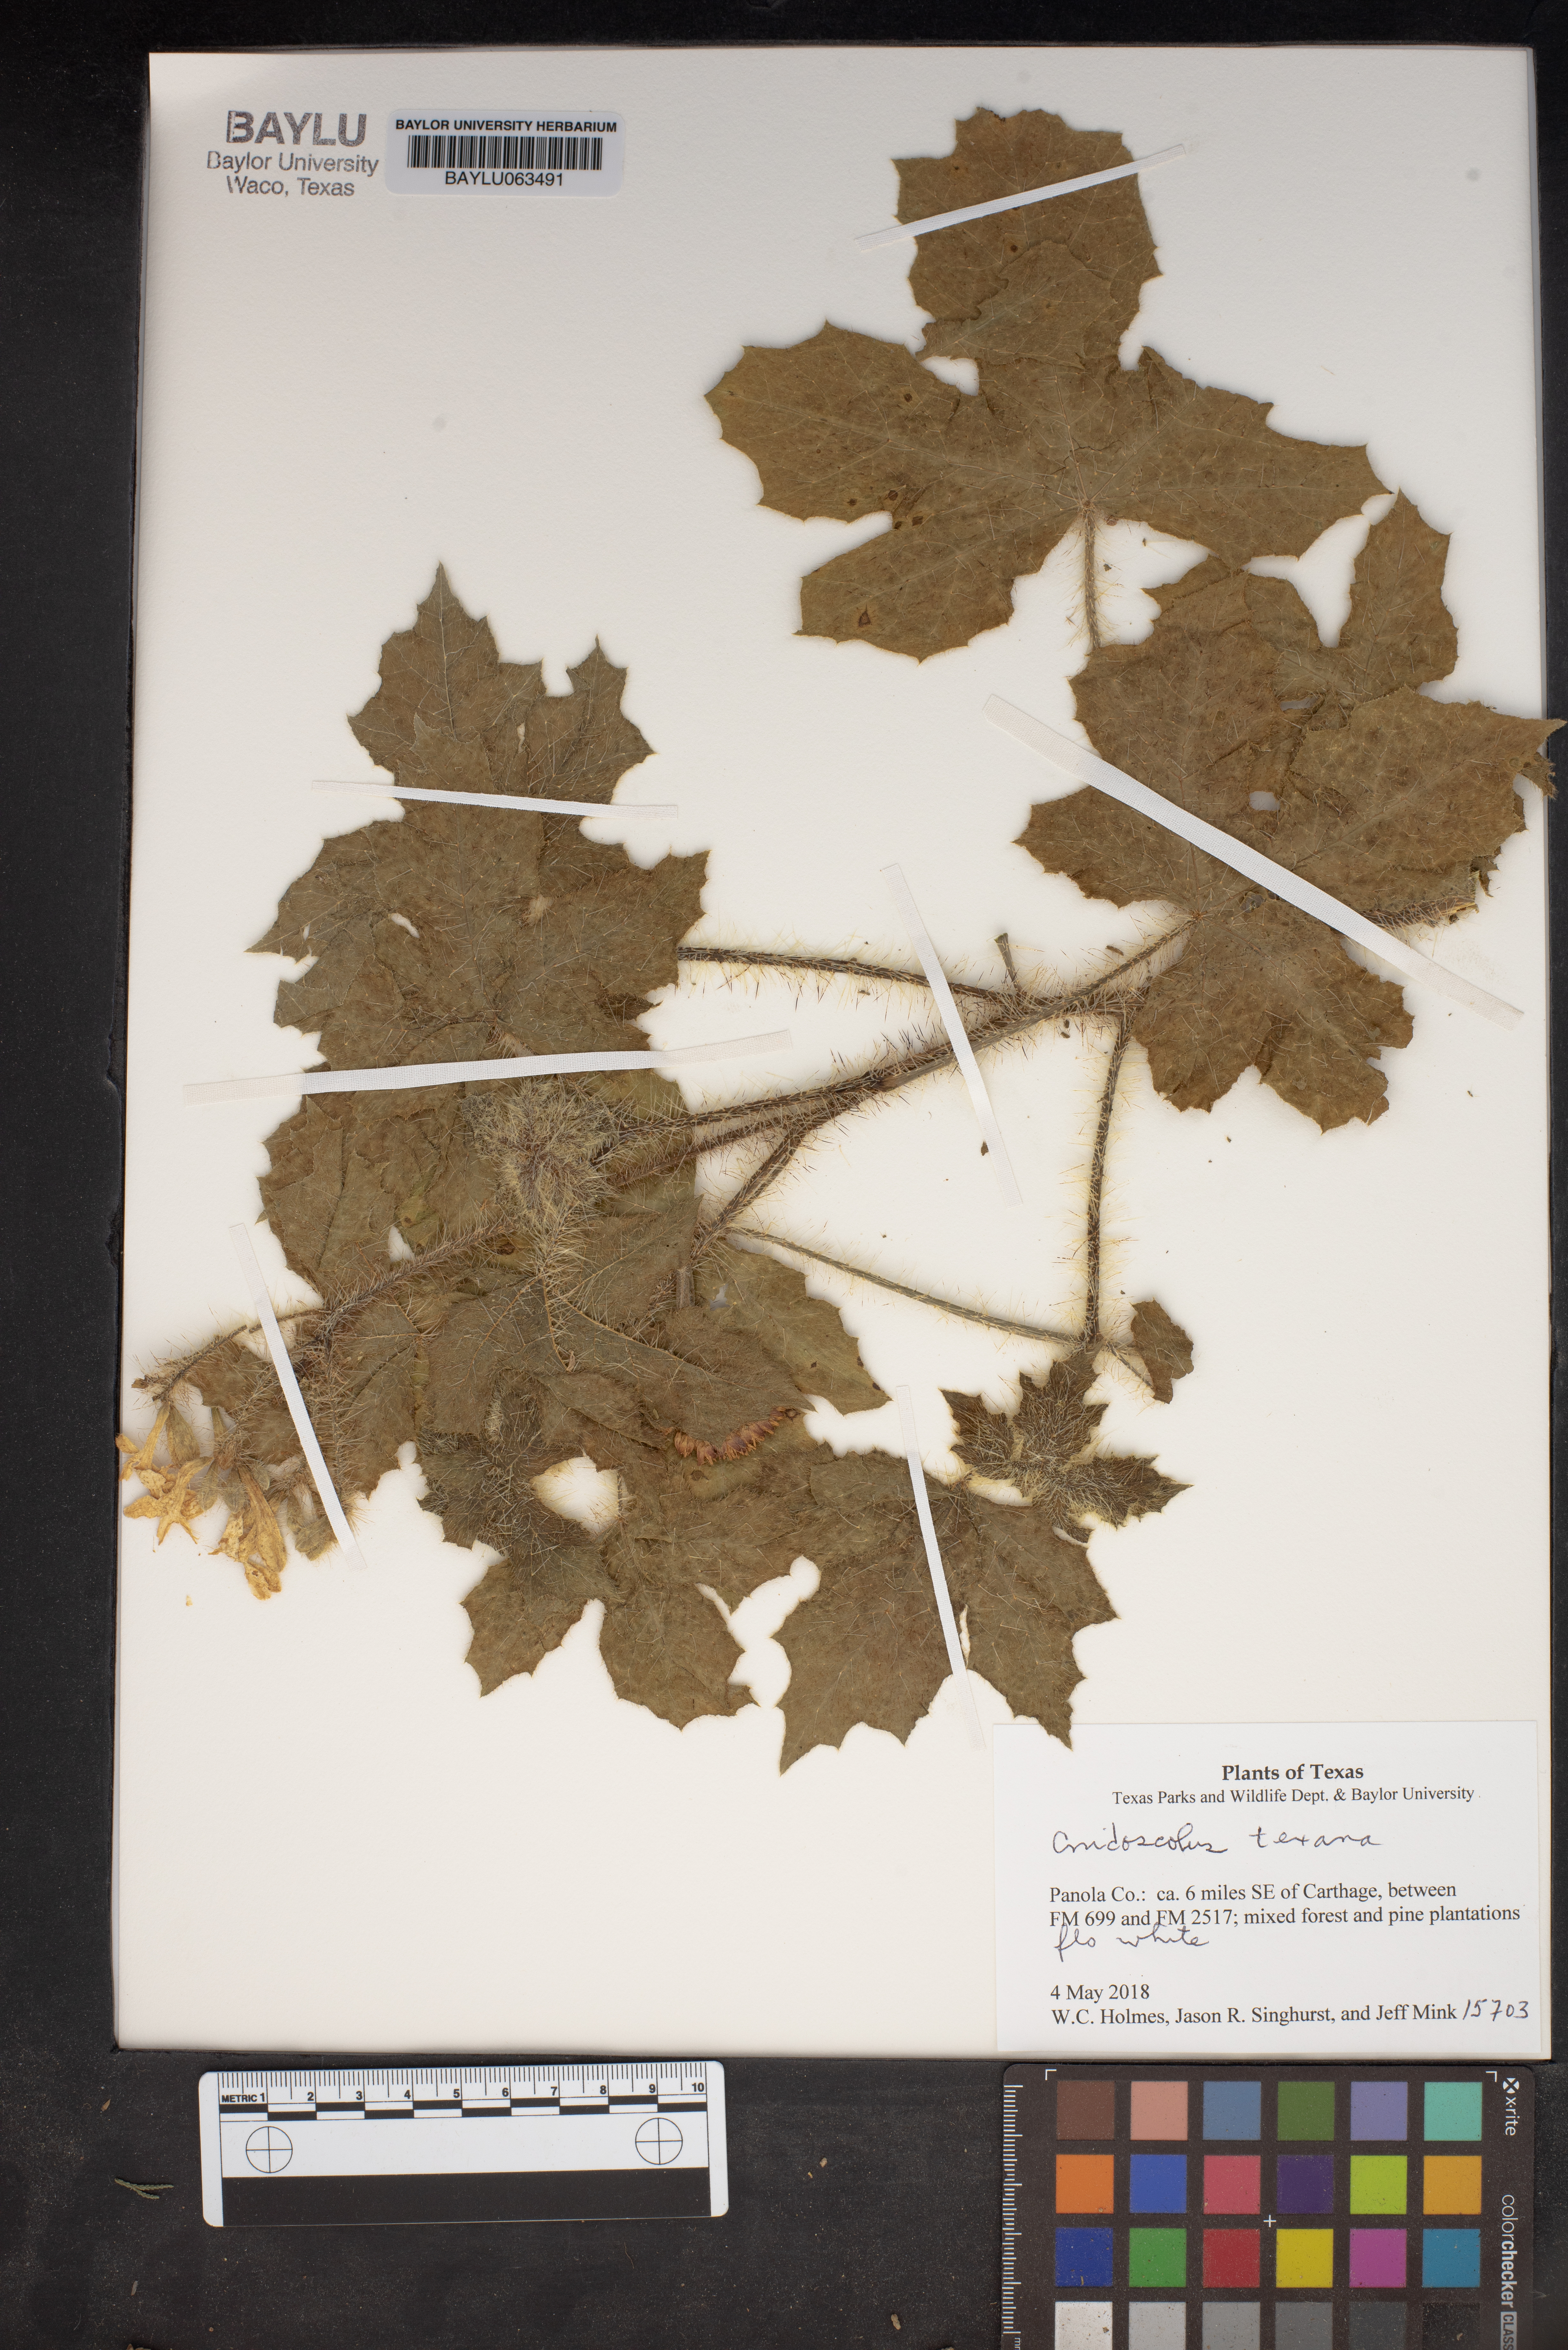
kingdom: Plantae
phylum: Tracheophyta
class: Magnoliopsida
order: Malpighiales
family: Euphorbiaceae
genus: Cnidoscolus
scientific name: Cnidoscolus texanus
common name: Texas bull-nettle
